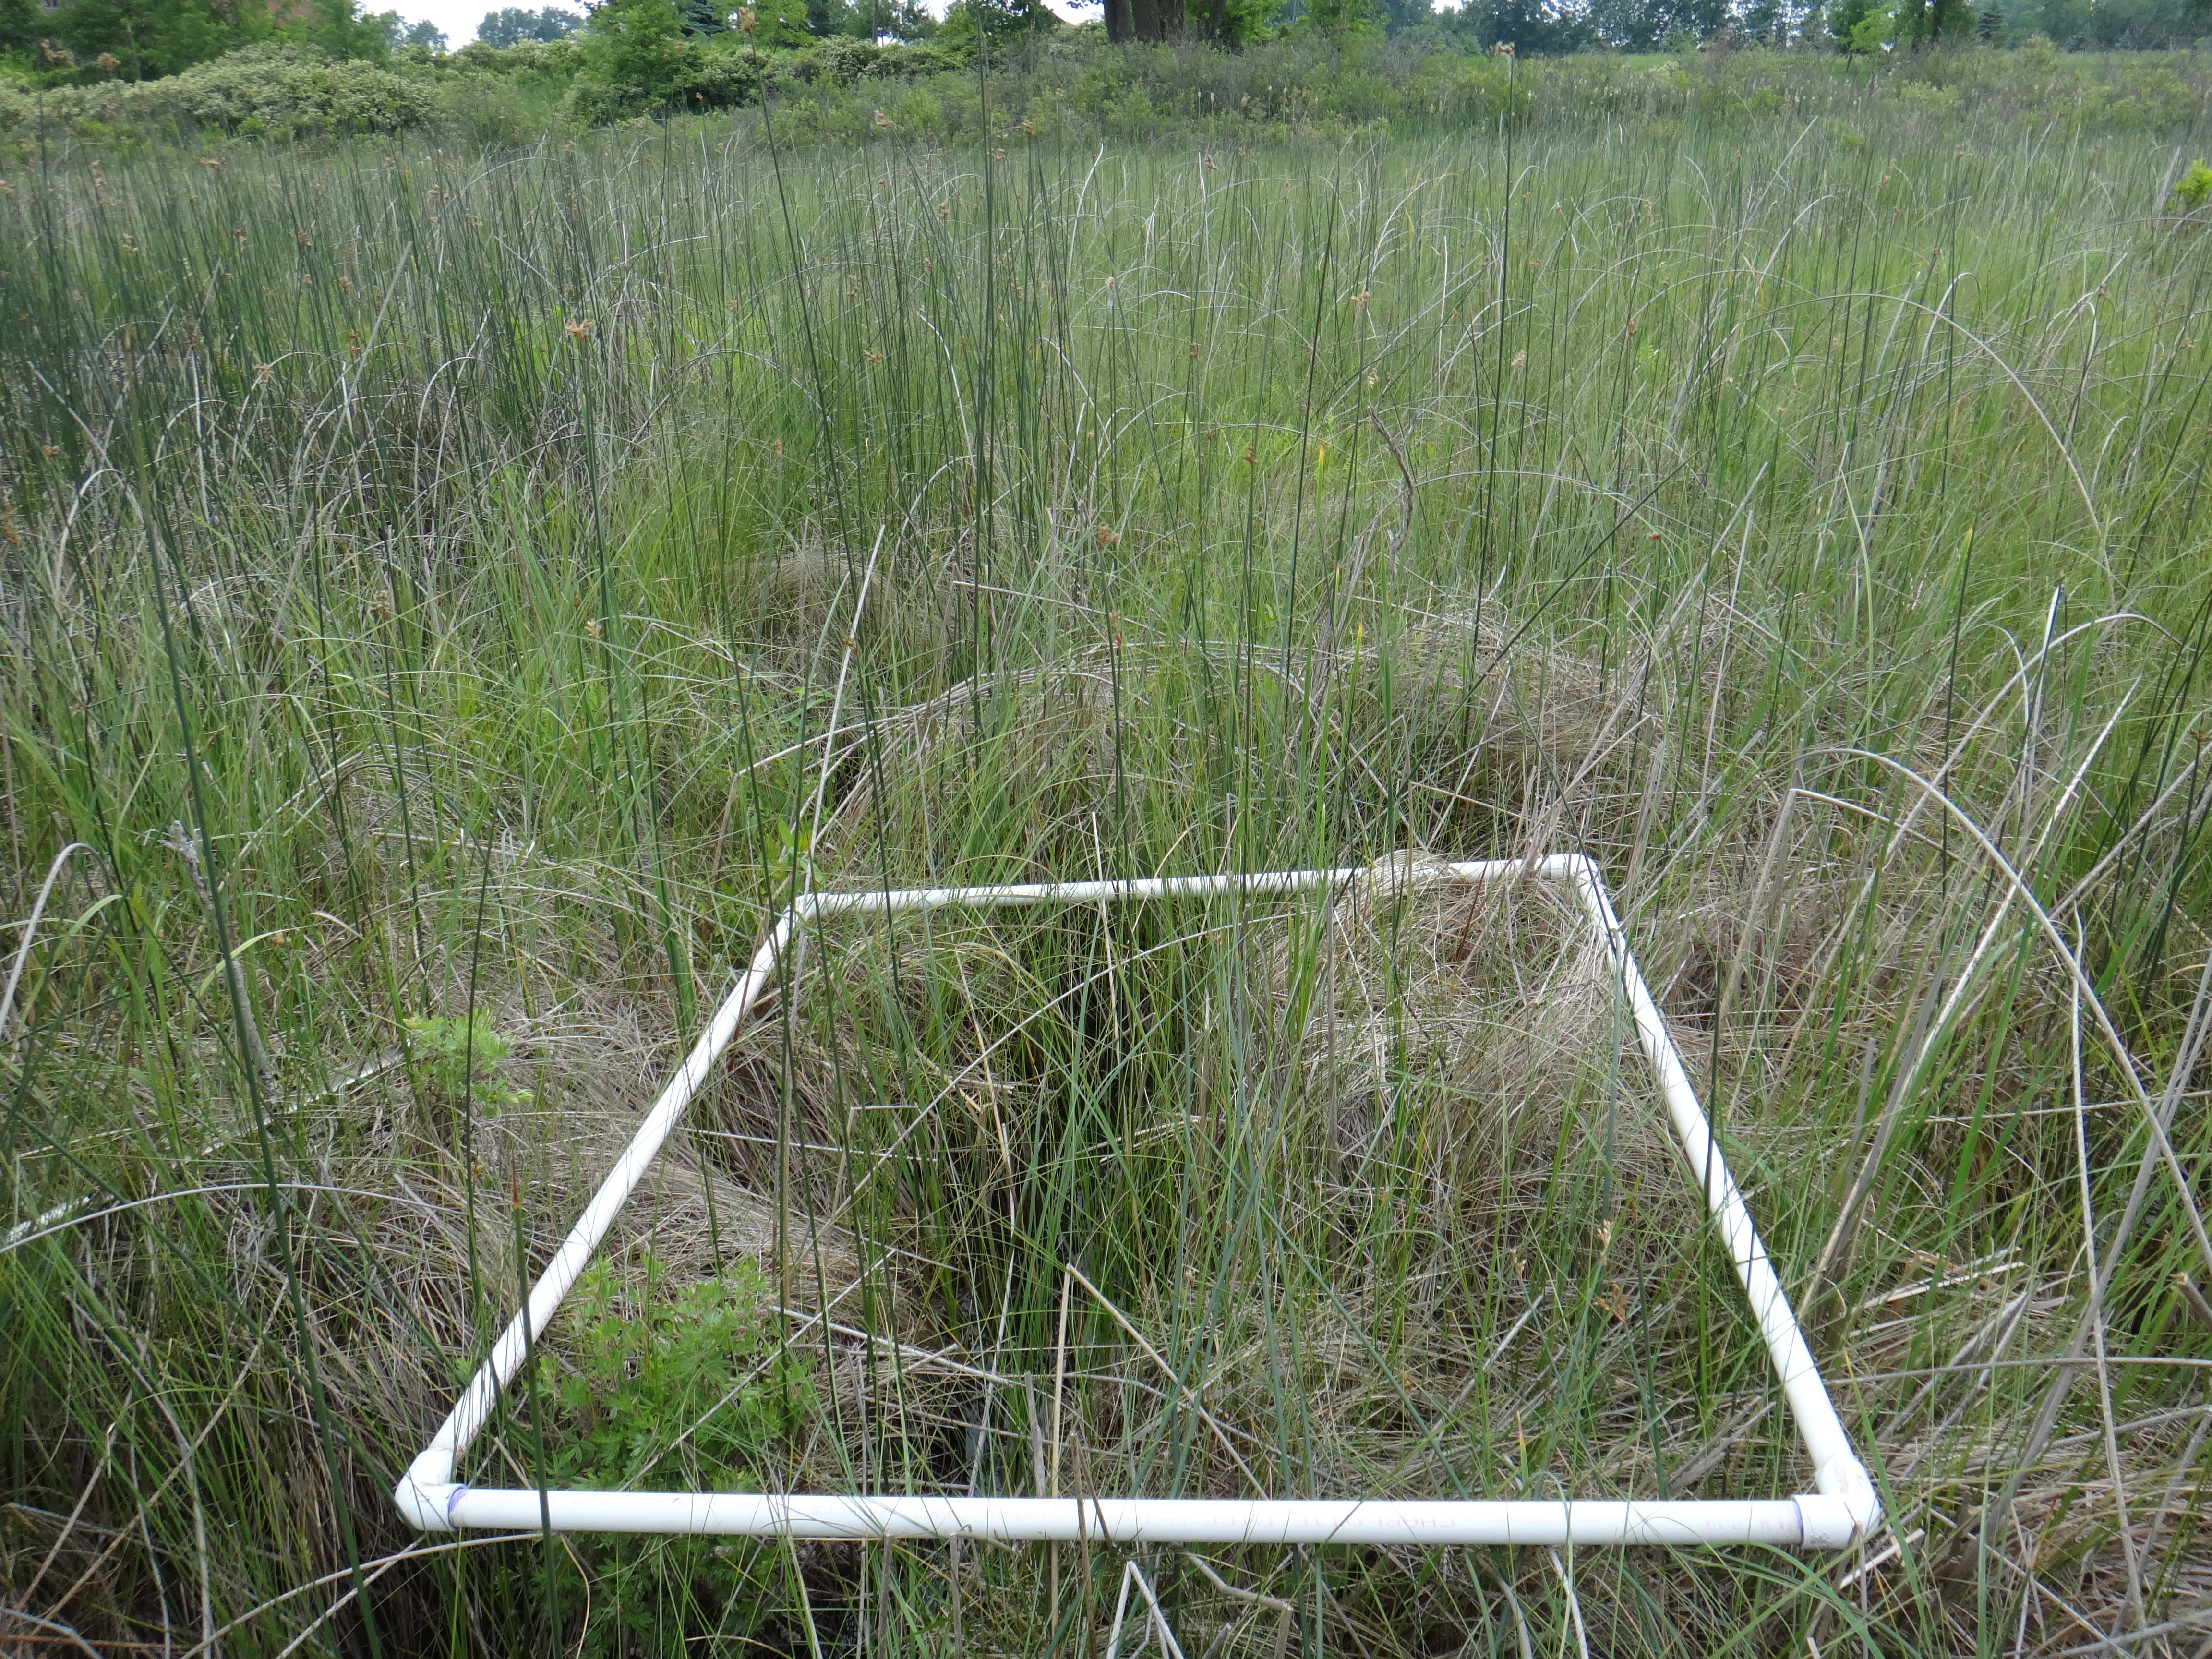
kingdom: Plantae
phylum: Tracheophyta
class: Magnoliopsida
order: Rosales
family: Rosaceae
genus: Dasiphora
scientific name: Dasiphora fruticosa
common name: Shrubby cinquefoil
